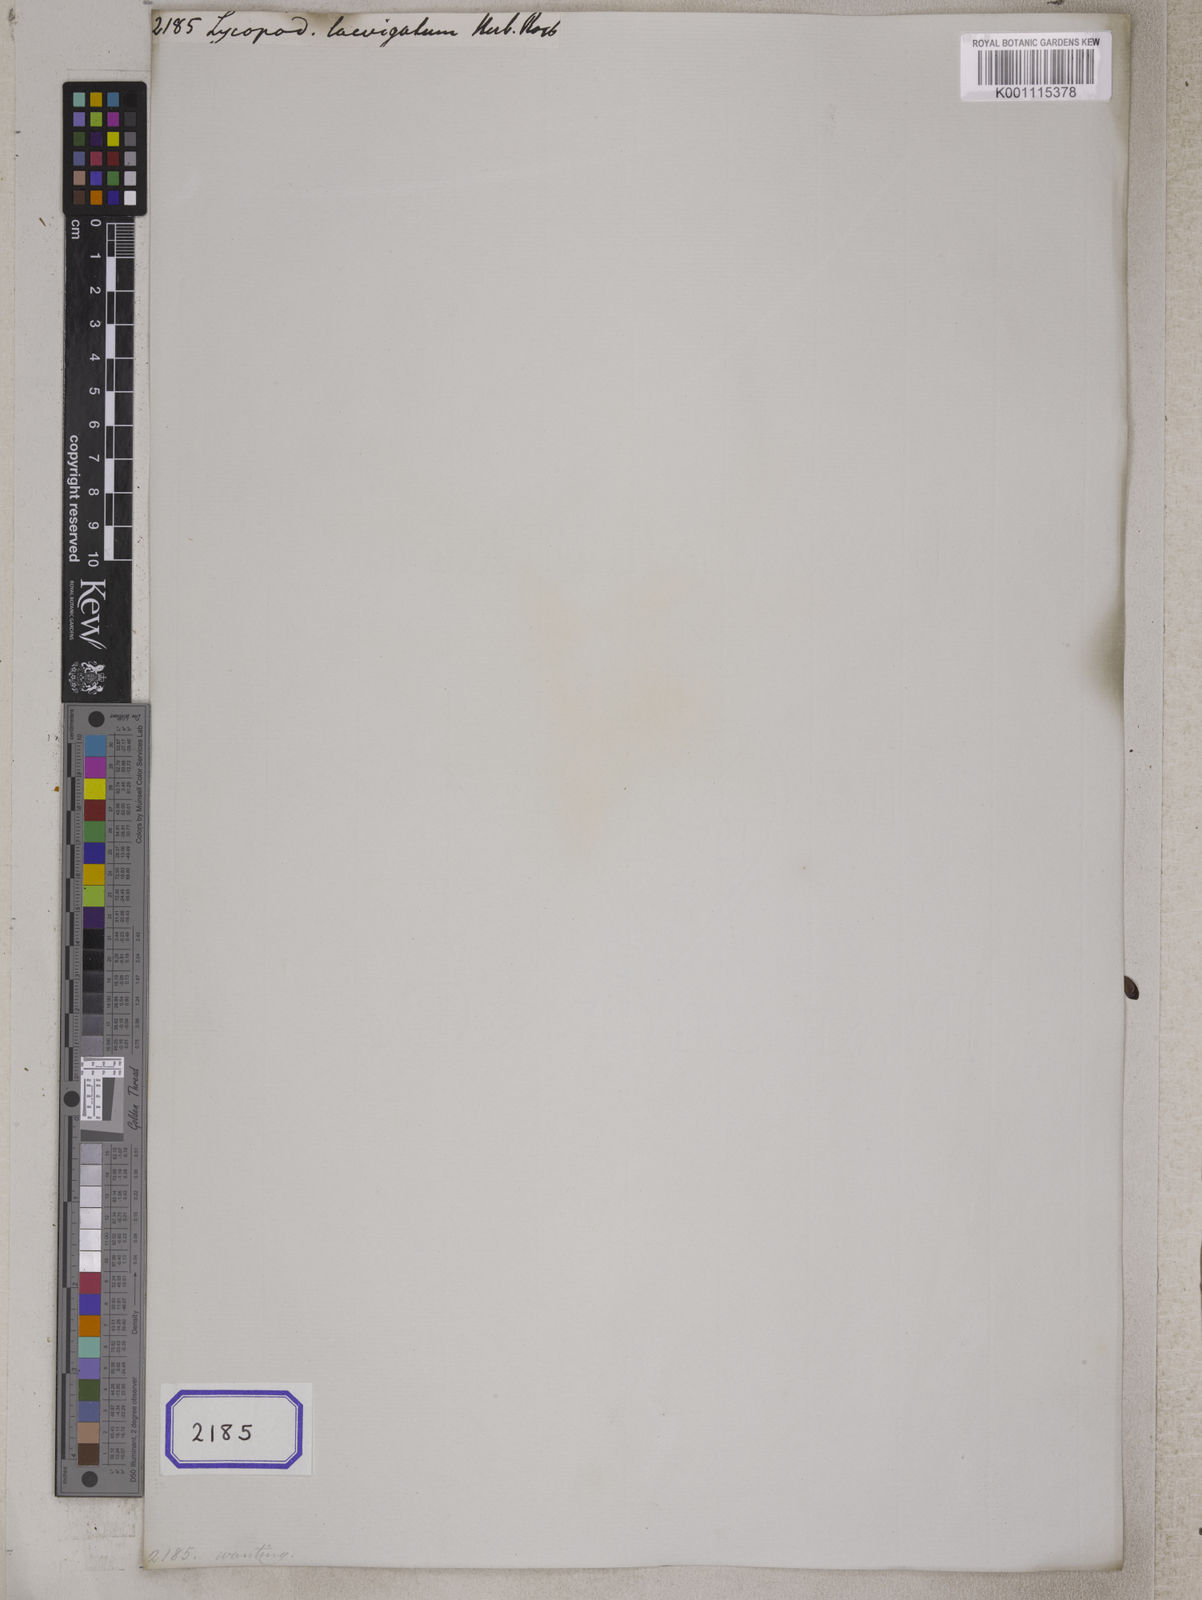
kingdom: Plantae
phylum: Tracheophyta
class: Lycopodiopsida
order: Lycopodiales
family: Lycopodiaceae
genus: Lycopodium
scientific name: Lycopodium
